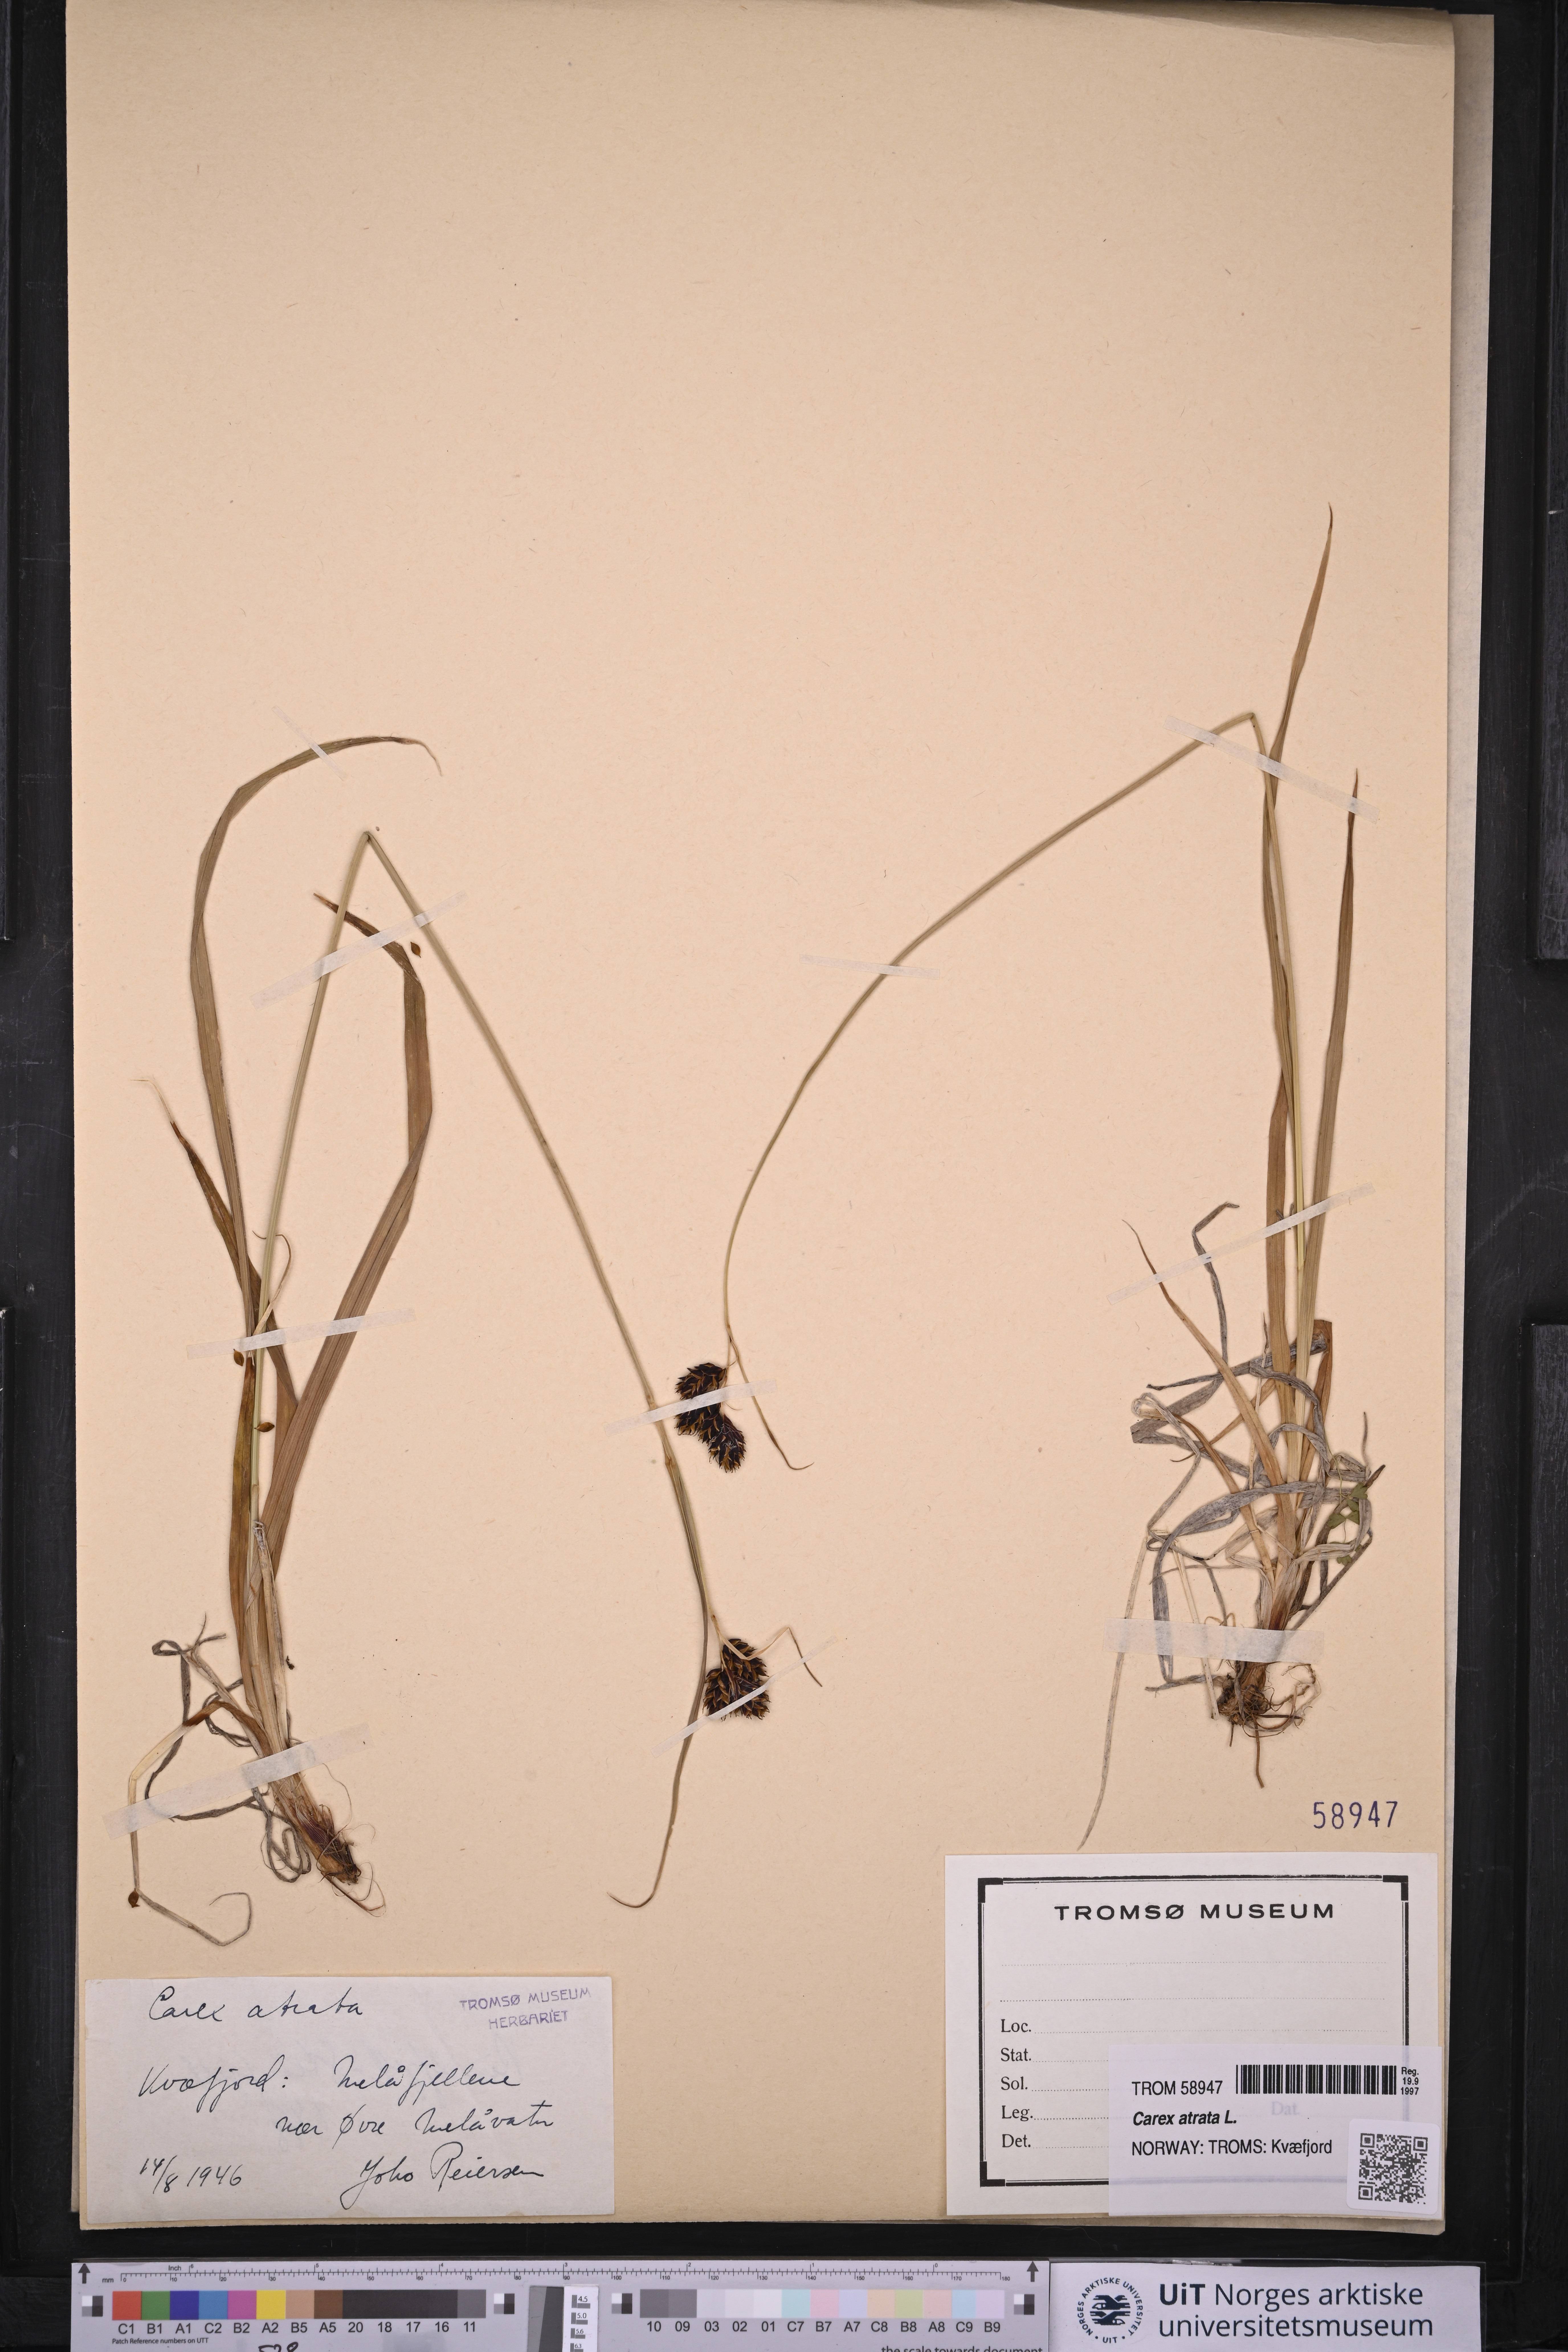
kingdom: Plantae
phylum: Tracheophyta
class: Liliopsida
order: Poales
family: Cyperaceae
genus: Carex
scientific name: Carex atrata
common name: Black alpine sedge
